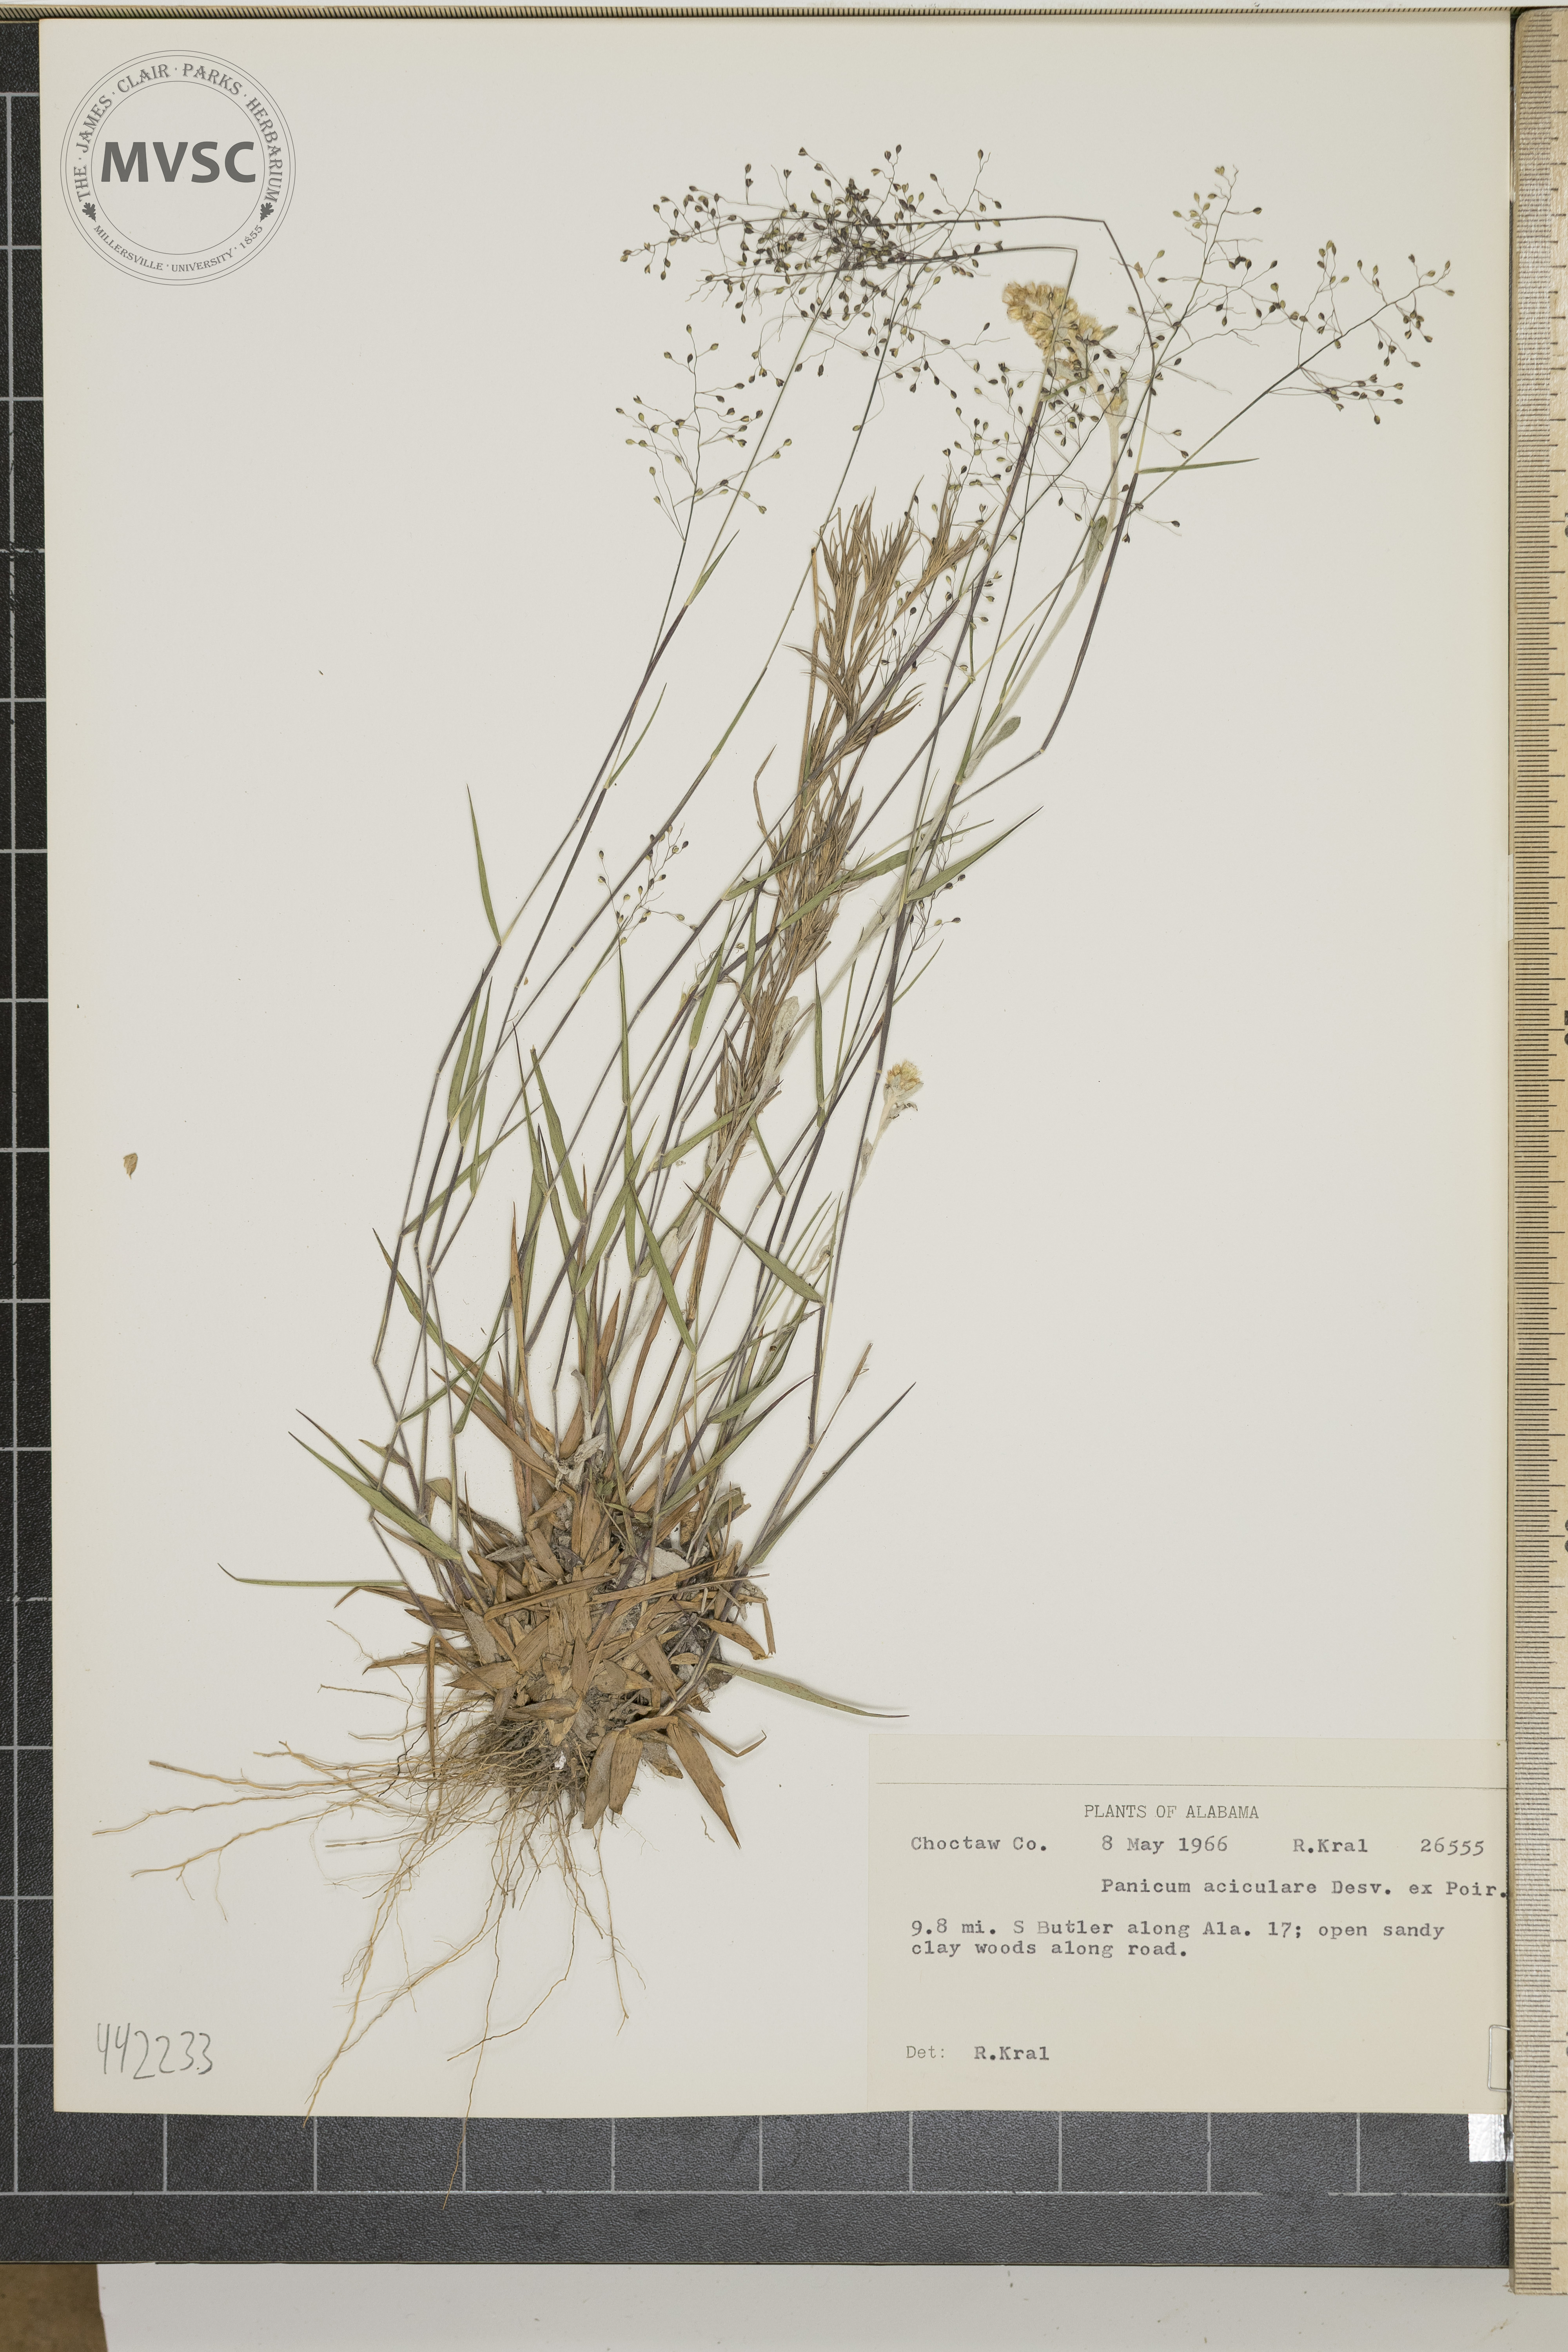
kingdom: Plantae
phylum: Tracheophyta
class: Liliopsida
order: Poales
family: Poaceae
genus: Dichanthelium
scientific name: Dichanthelium aciculare
